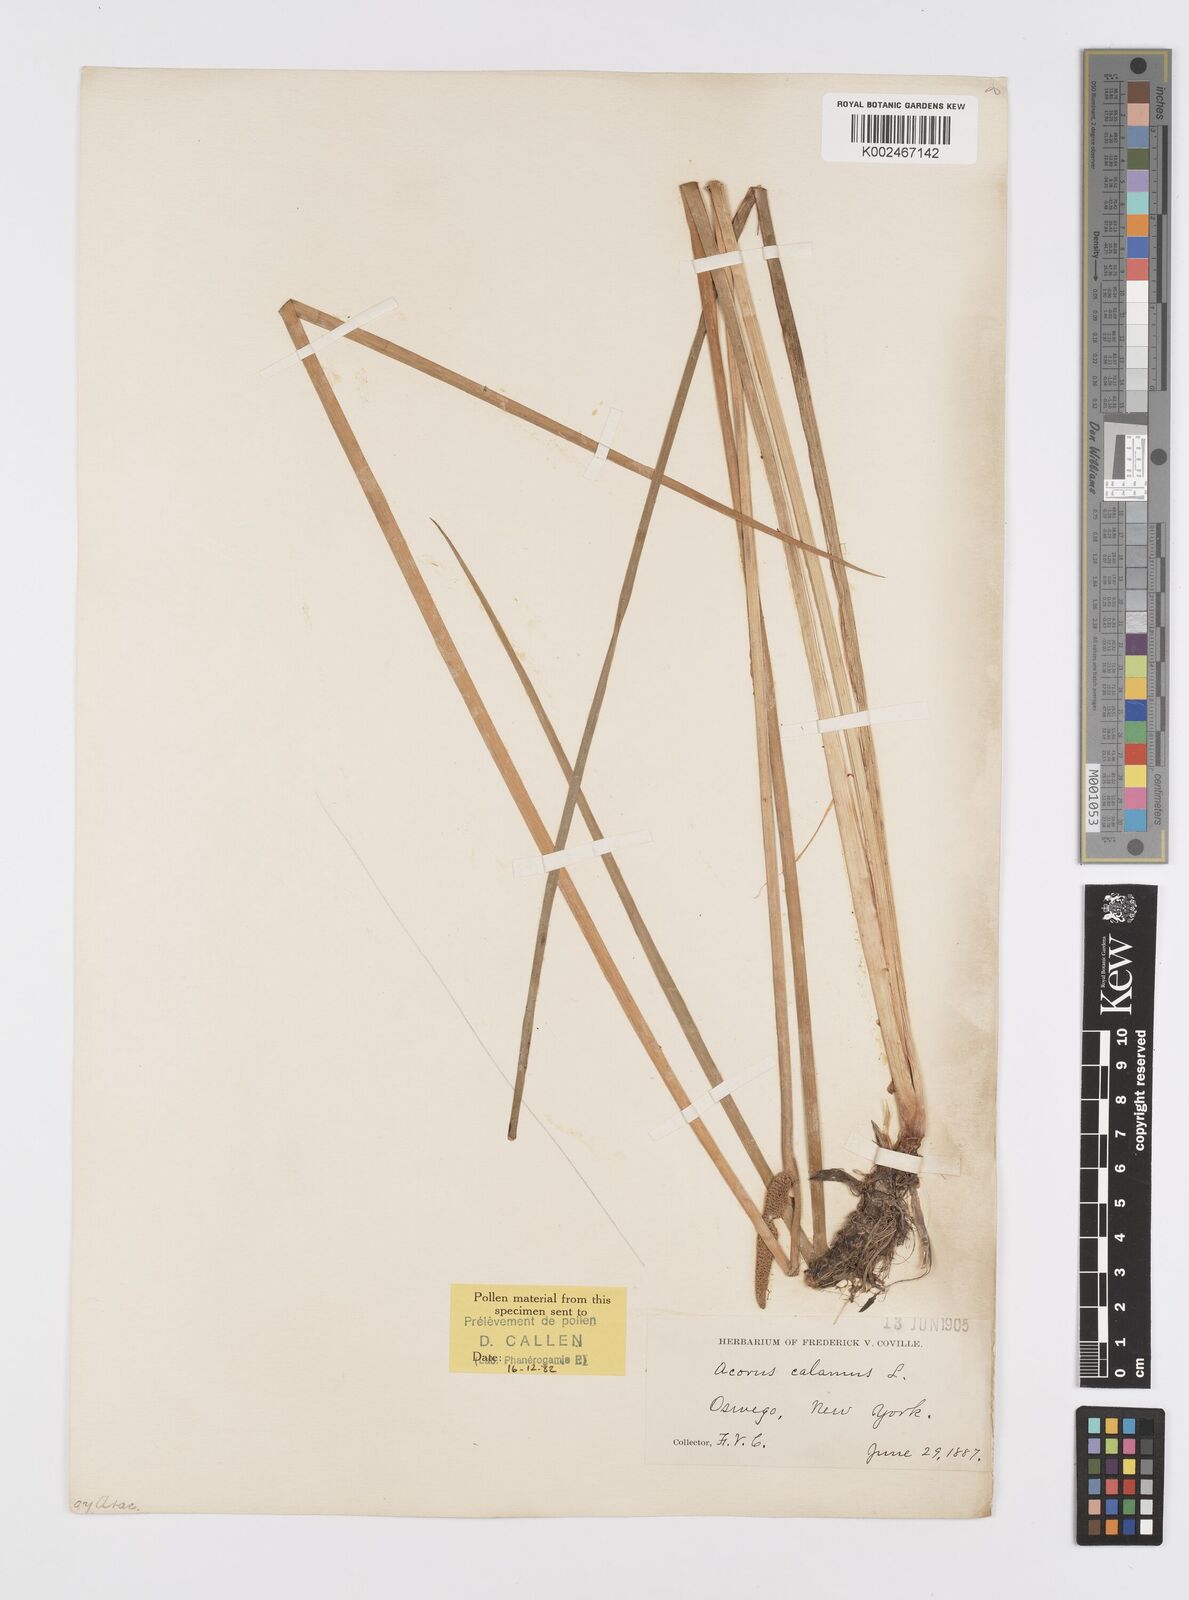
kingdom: Plantae
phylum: Tracheophyta
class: Liliopsida
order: Acorales
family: Acoraceae
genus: Acorus
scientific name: Acorus calamus
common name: Sweet-flag
